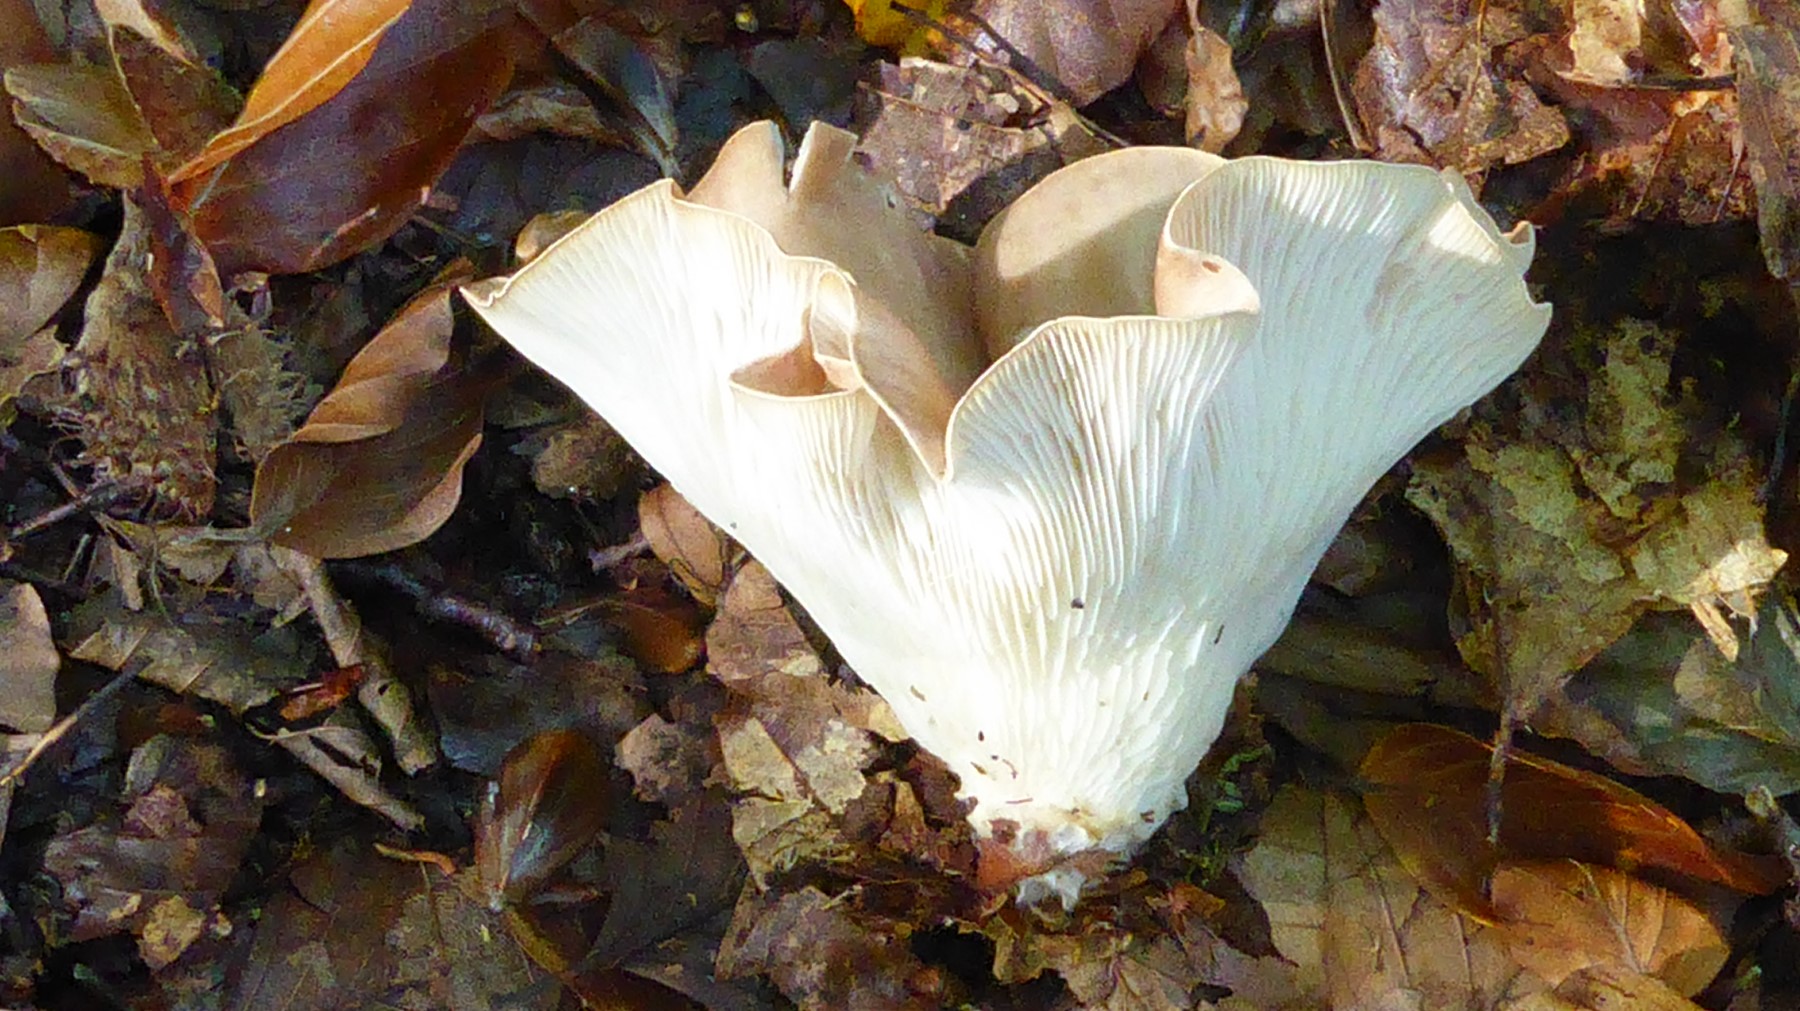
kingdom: Fungi
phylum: Basidiomycota
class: Agaricomycetes
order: Agaricales
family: Tricholomataceae
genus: Infundibulicybe
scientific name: Infundibulicybe gibba
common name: almindelig tragthat
